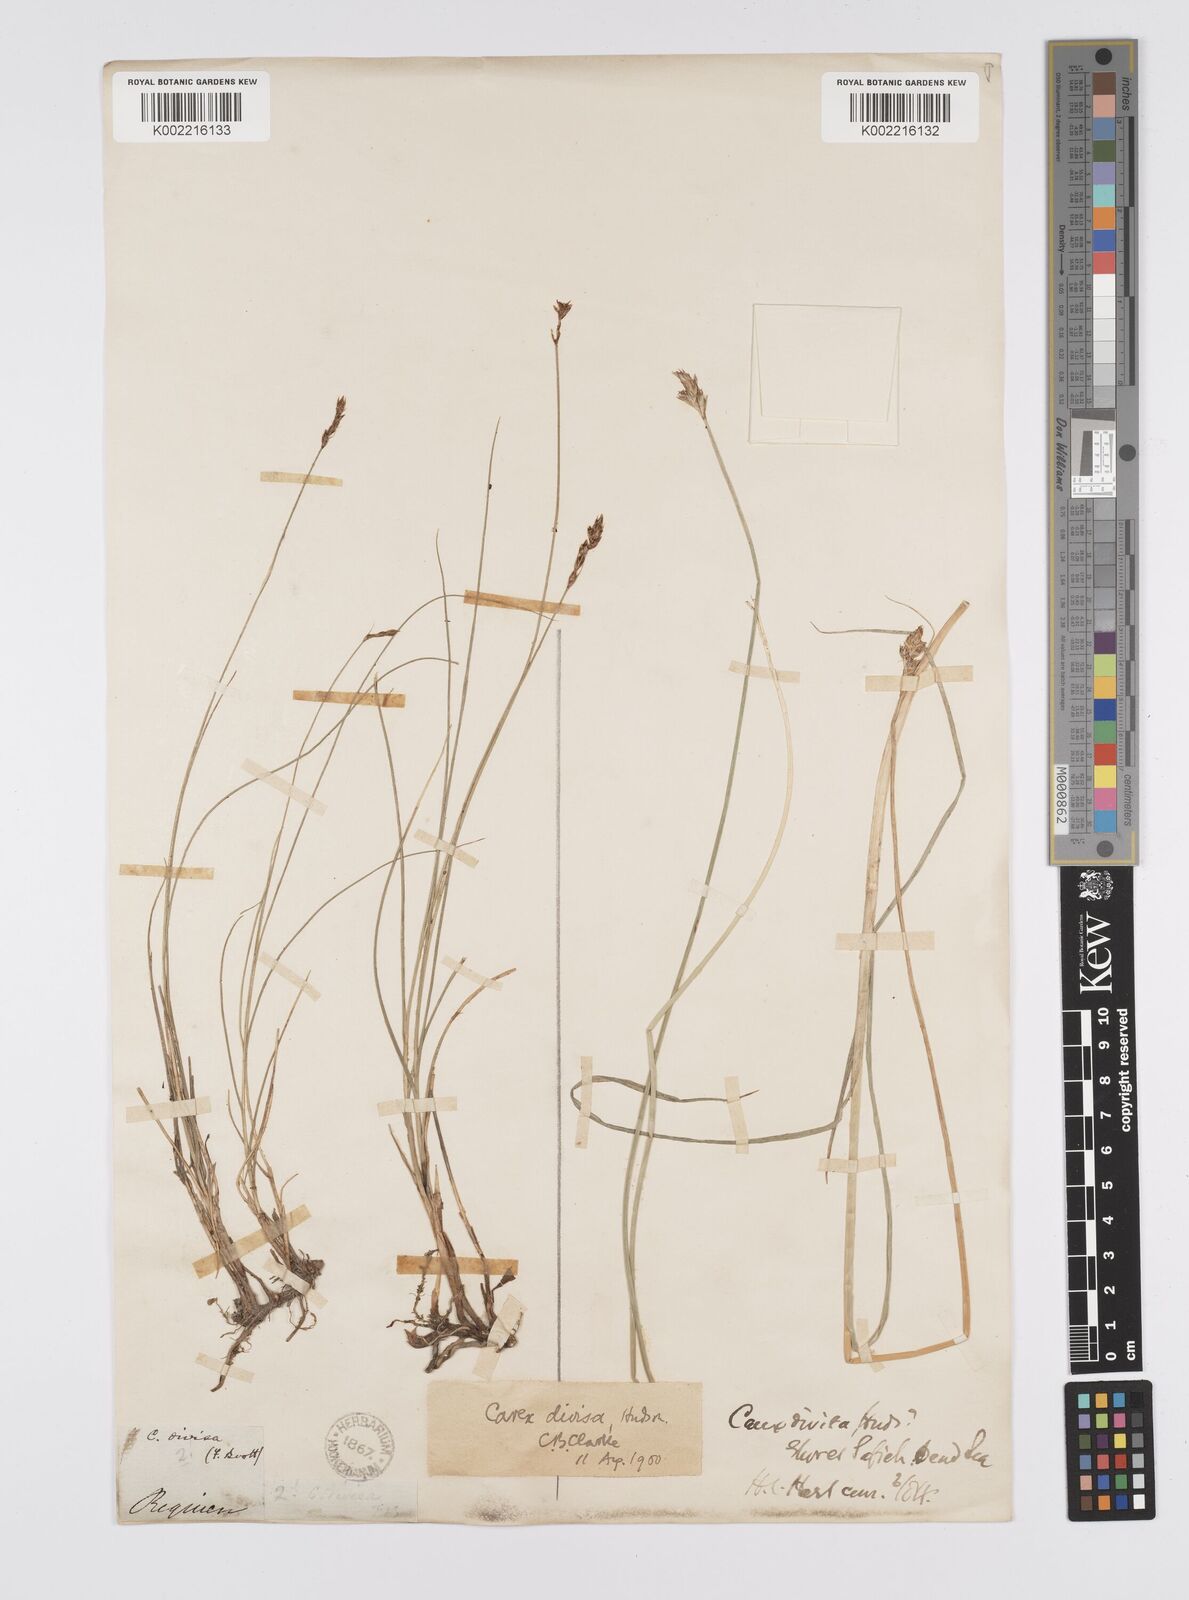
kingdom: Plantae
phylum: Tracheophyta
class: Liliopsida
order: Poales
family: Cyperaceae
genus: Carex
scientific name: Carex divisa
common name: Divided sedge
